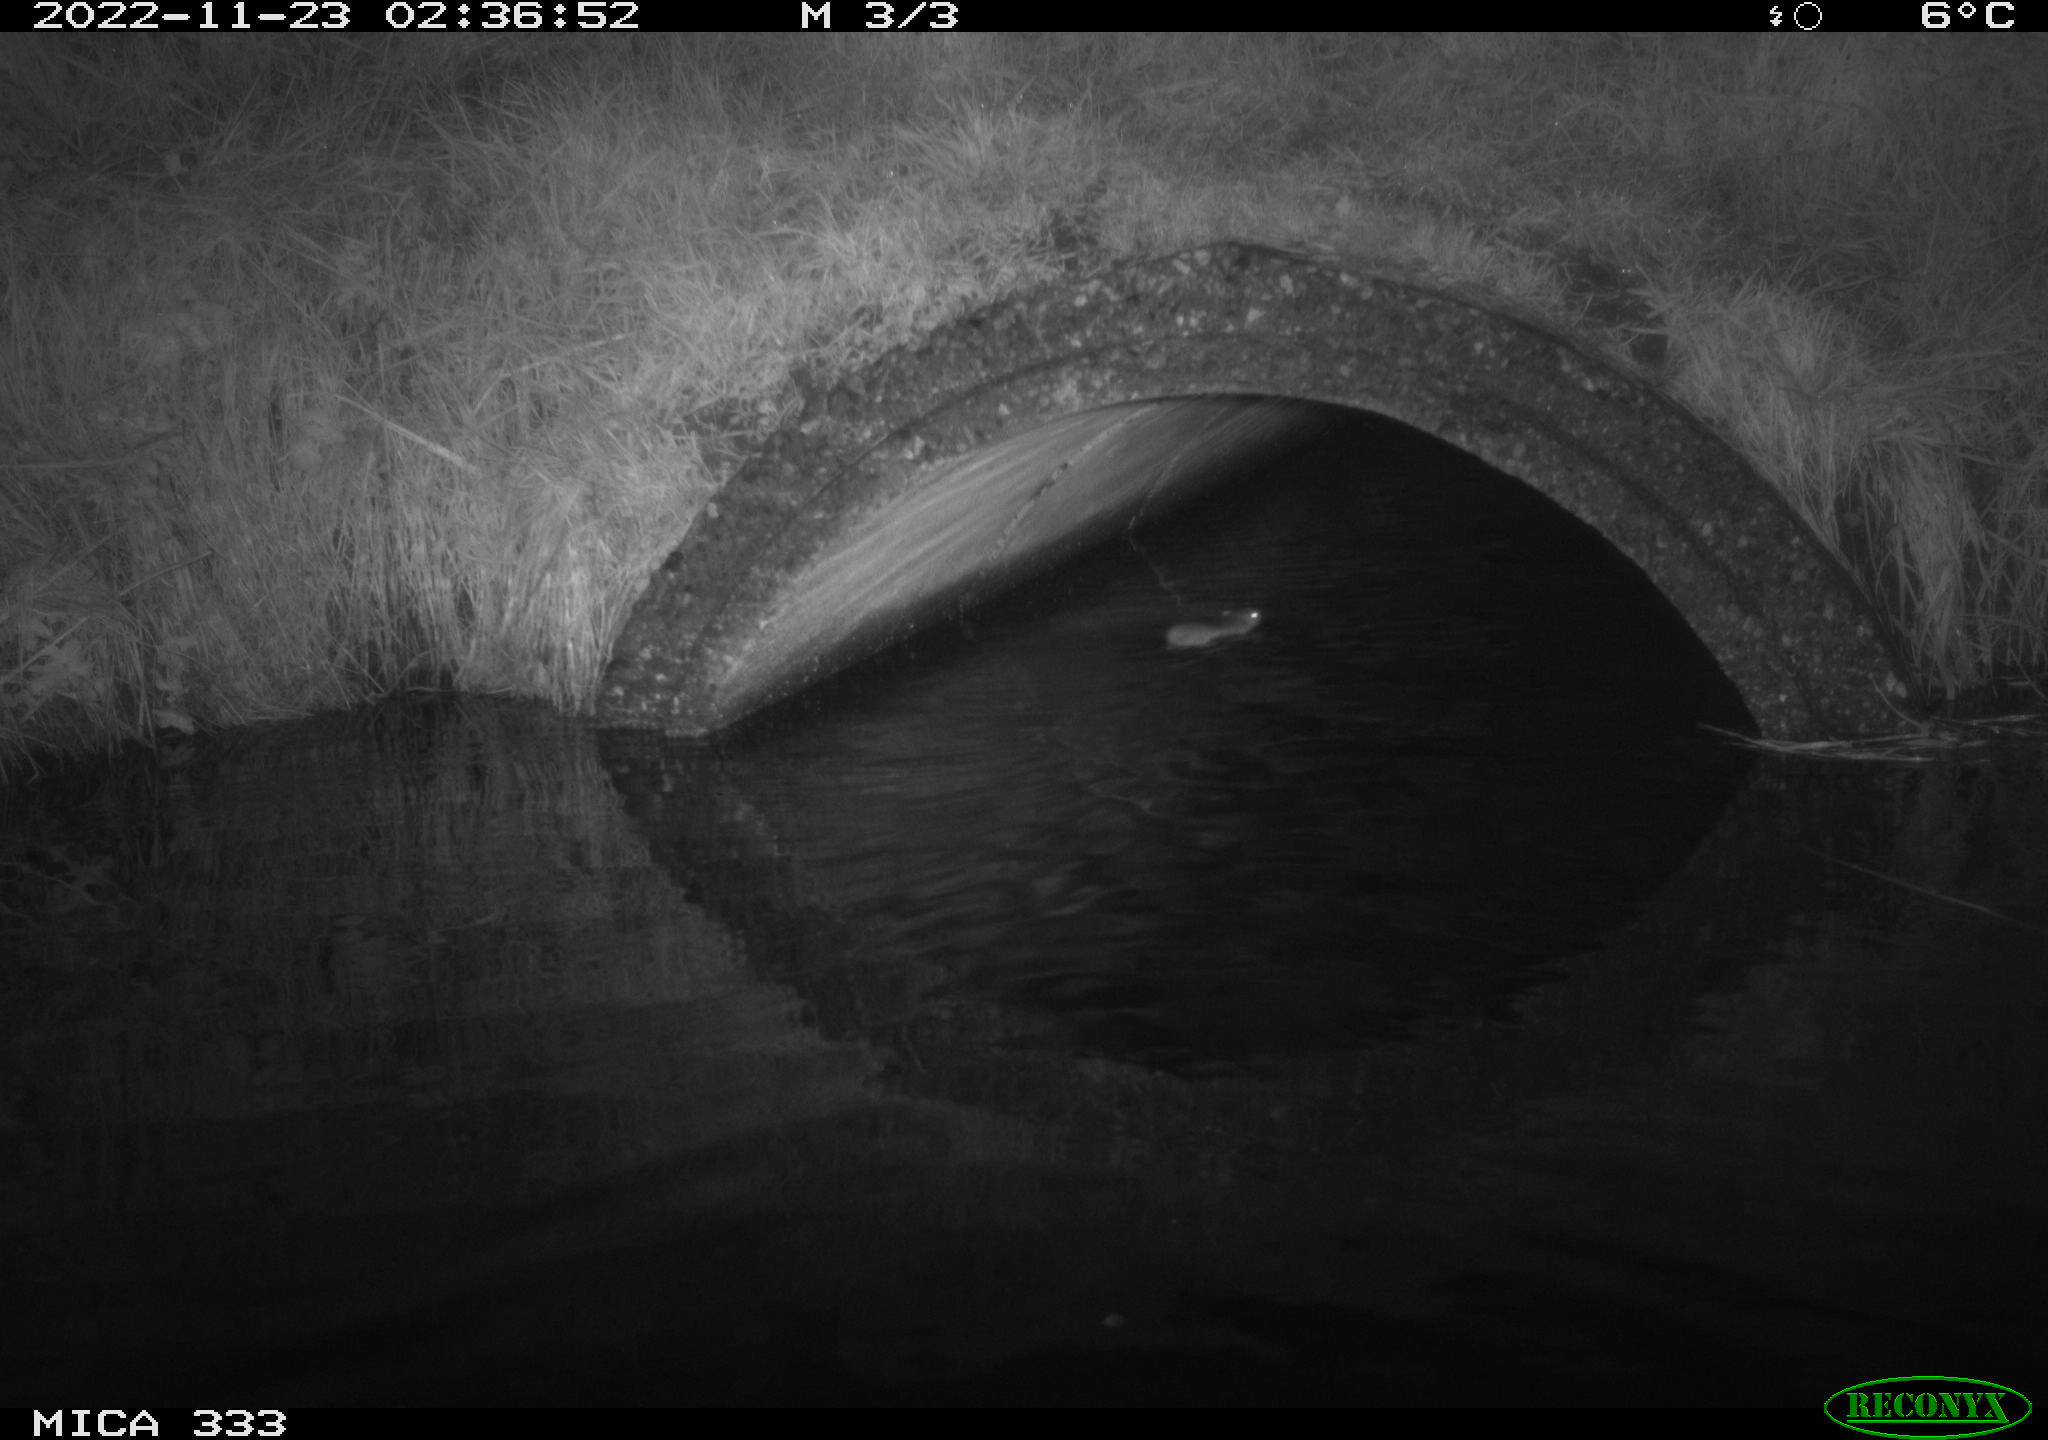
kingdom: Animalia
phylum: Chordata
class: Mammalia
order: Rodentia
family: Muridae
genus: Rattus
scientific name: Rattus norvegicus
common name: Brown rat
